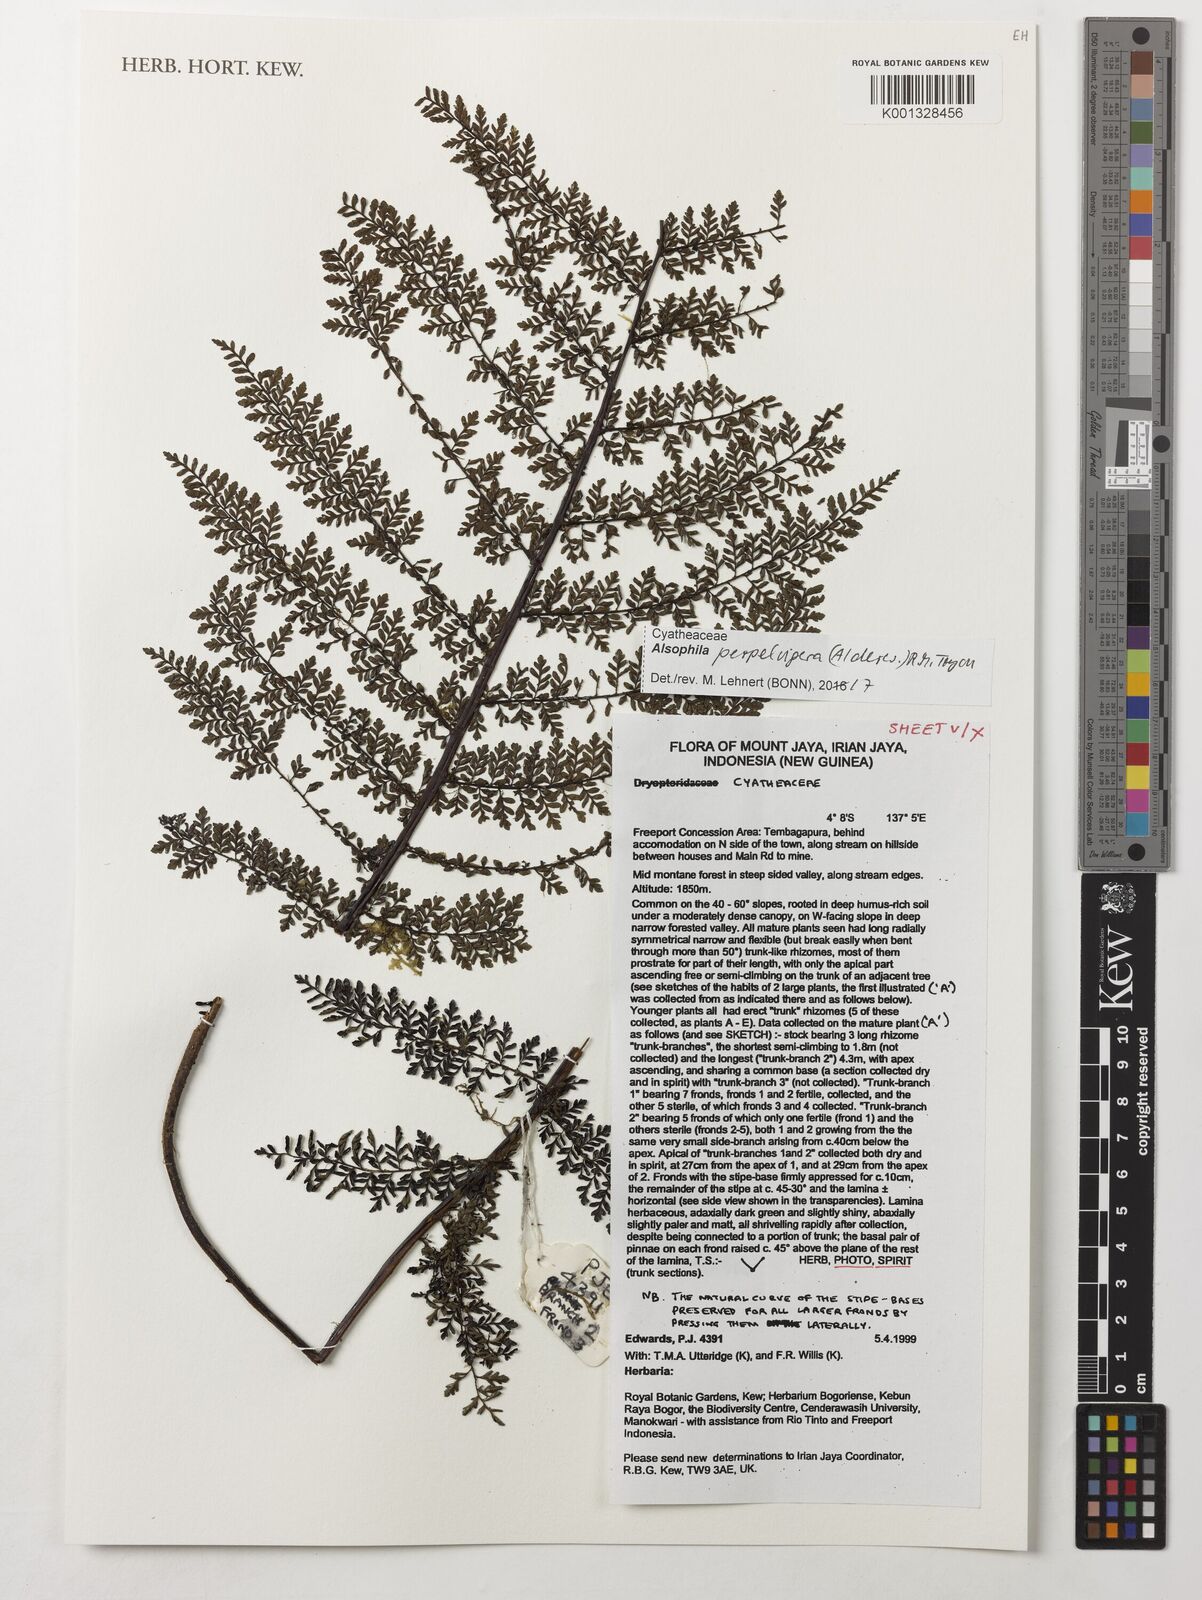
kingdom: Plantae
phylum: Tracheophyta
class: Polypodiopsida
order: Cyatheales
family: Cyatheaceae
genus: Alsophila
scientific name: Alsophila perpelvigera
